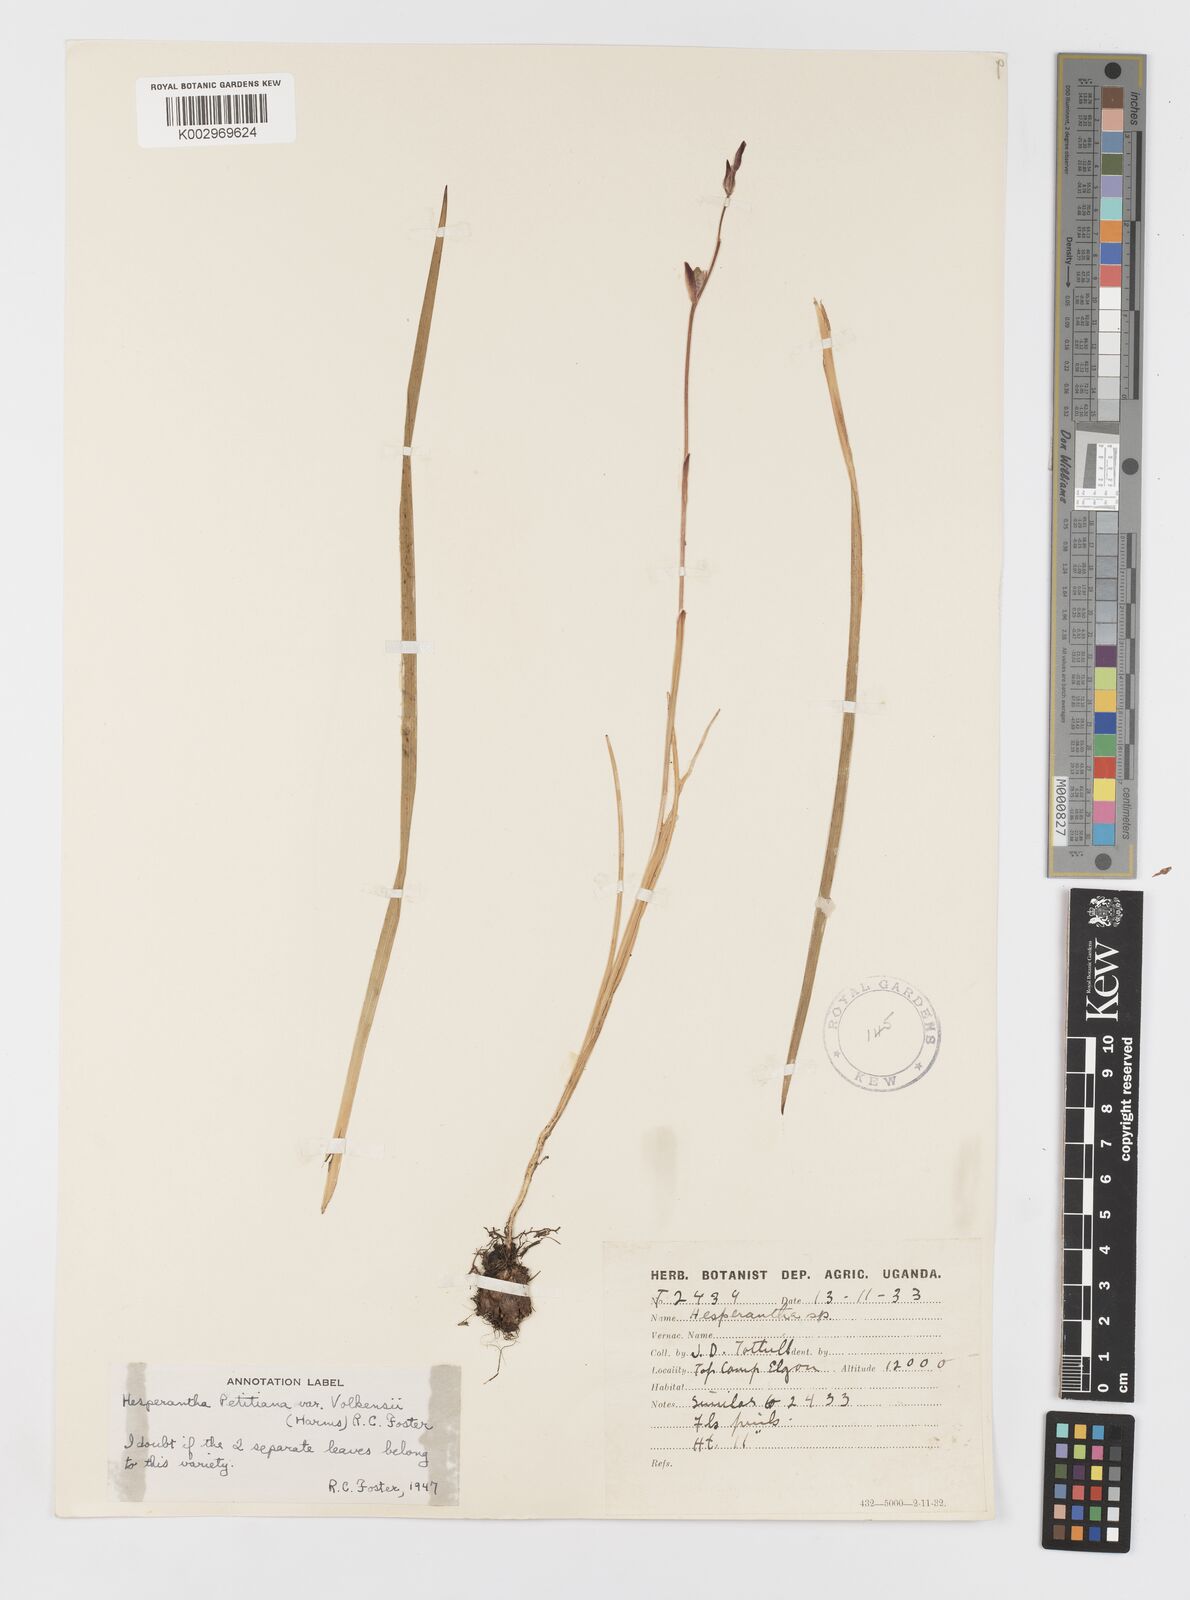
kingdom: Plantae
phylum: Tracheophyta
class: Liliopsida
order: Asparagales
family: Iridaceae
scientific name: Iridaceae
